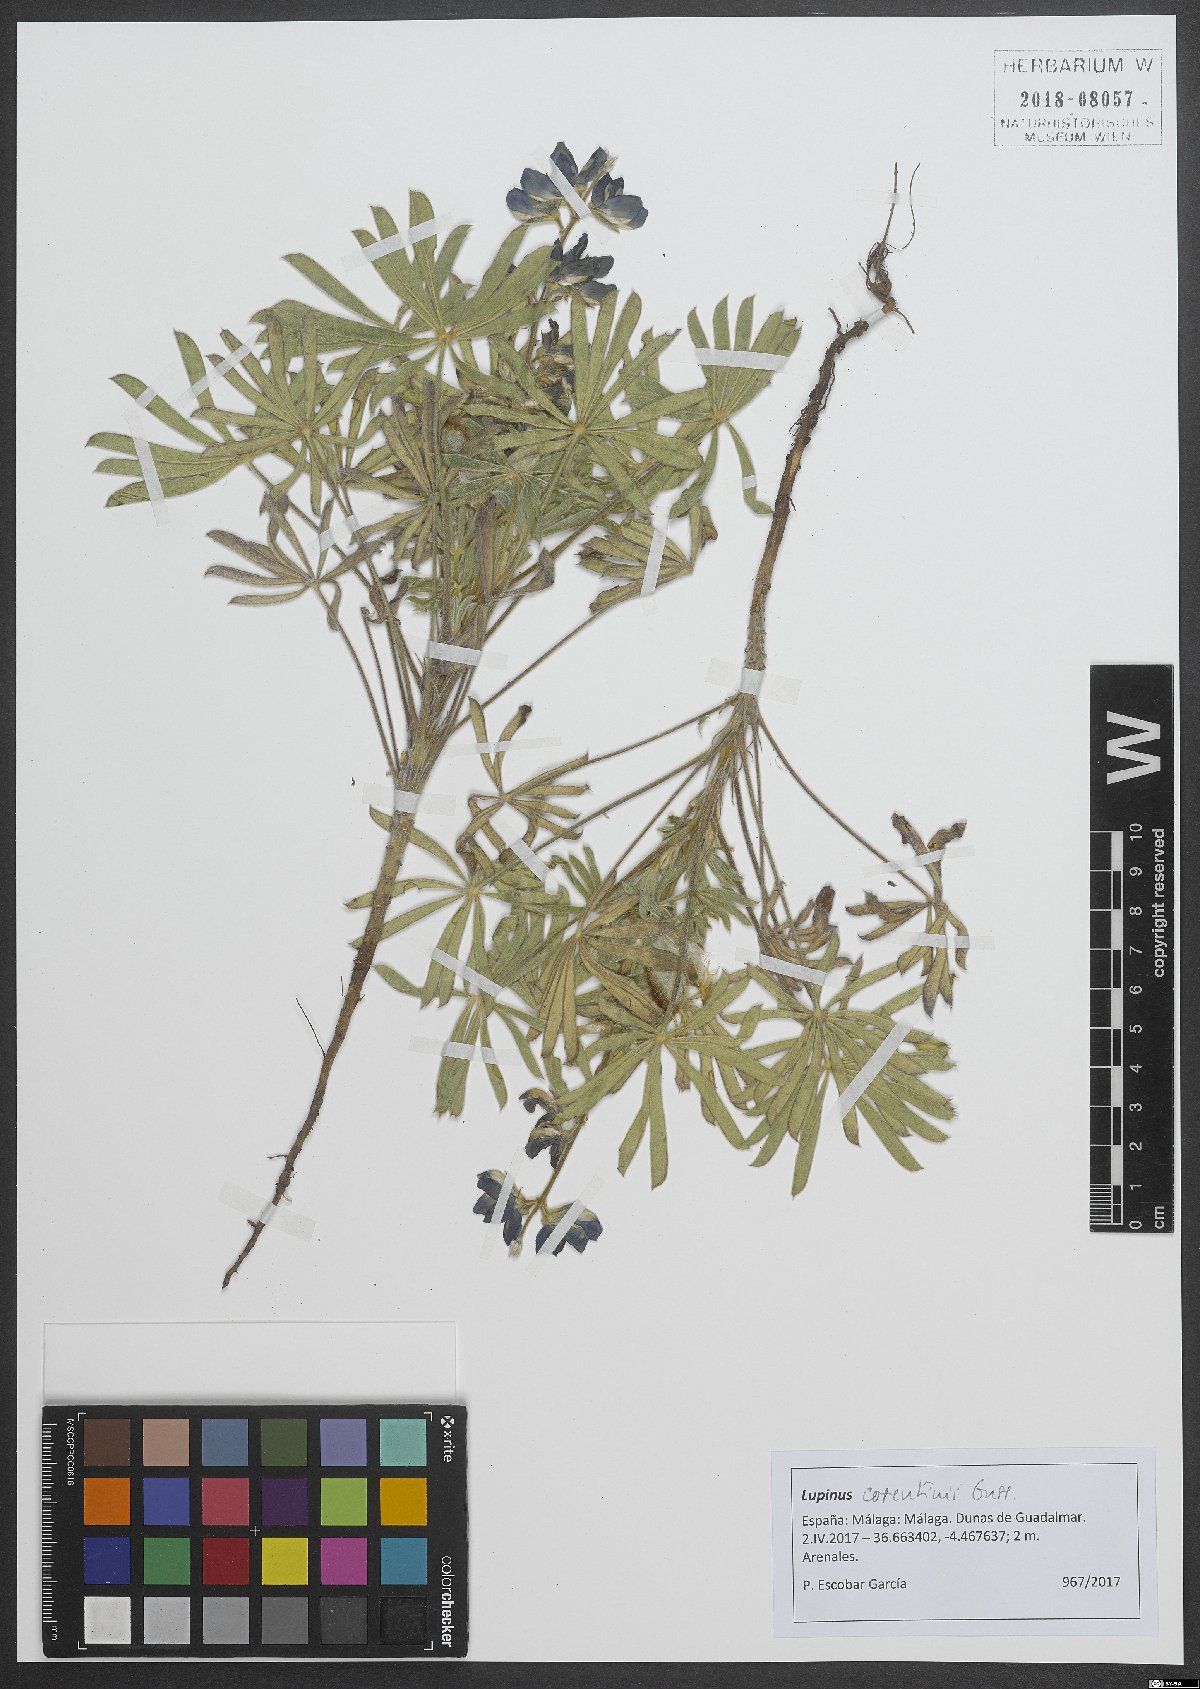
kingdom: Plantae
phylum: Tracheophyta
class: Magnoliopsida
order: Fabales
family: Fabaceae
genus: Lupinus
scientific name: Lupinus cosentinii
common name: Hairy blue lupin
